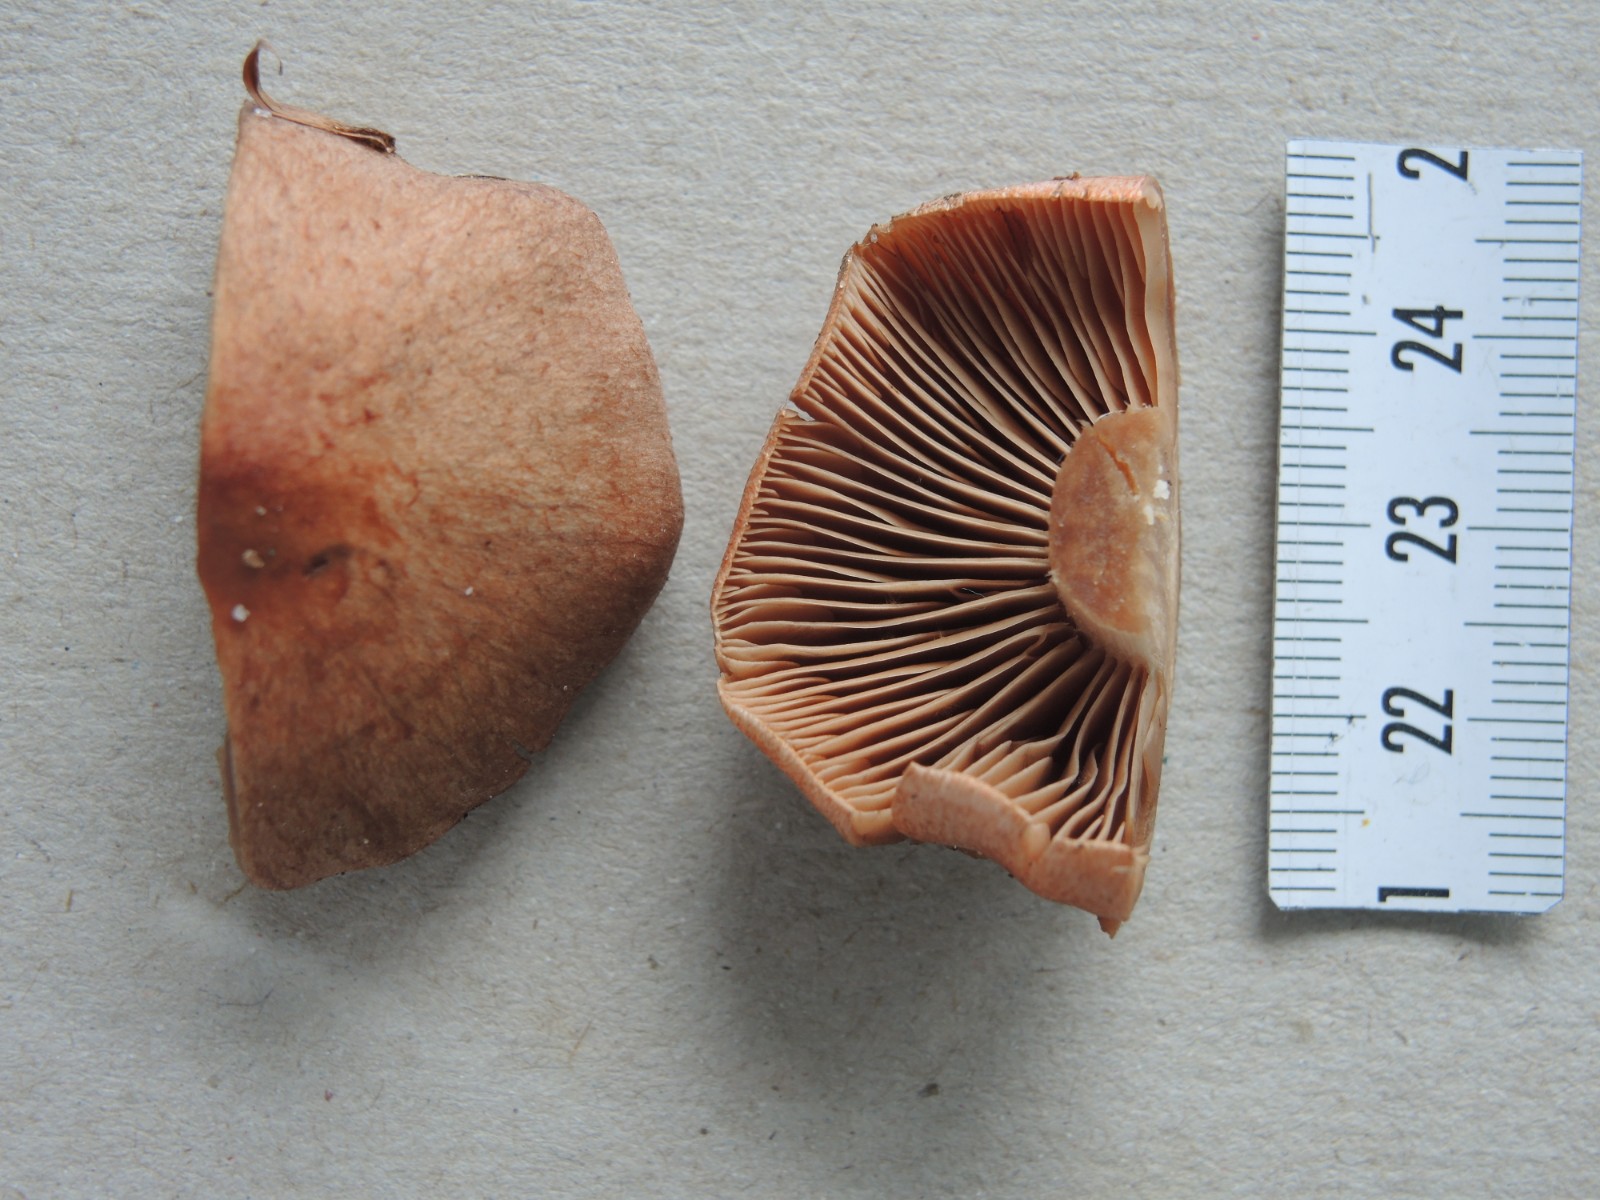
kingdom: Fungi
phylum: Basidiomycota
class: Agaricomycetes
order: Agaricales
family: Cortinariaceae
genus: Cortinarius
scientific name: Cortinarius paragaudis
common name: rødbæltet slørhat
